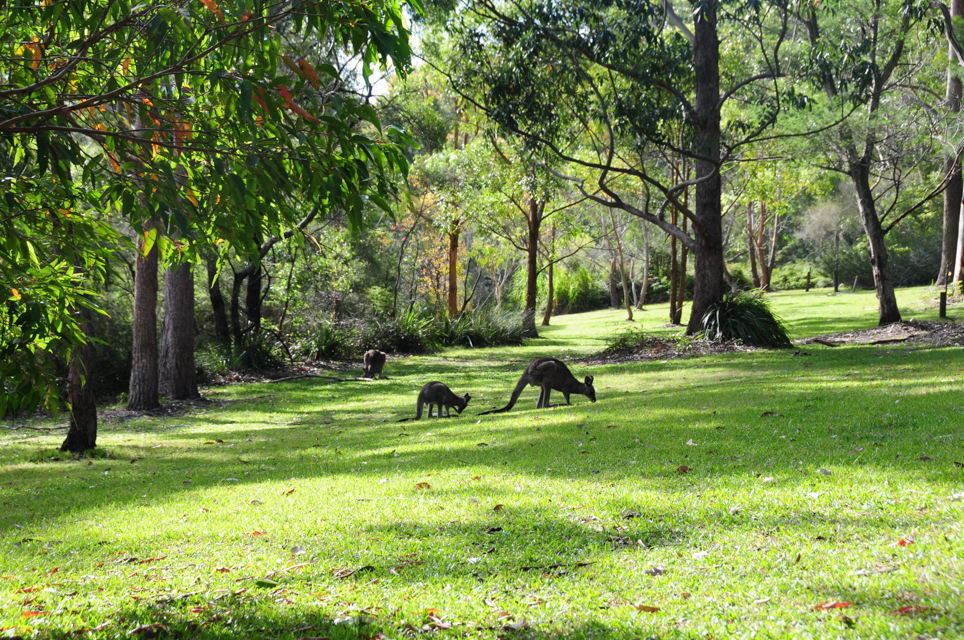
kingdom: Animalia
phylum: Chordata
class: Mammalia
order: Diprotodontia
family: Macropodidae
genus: Macropus
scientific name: Macropus giganteus
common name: Eastern grey kangaroo
